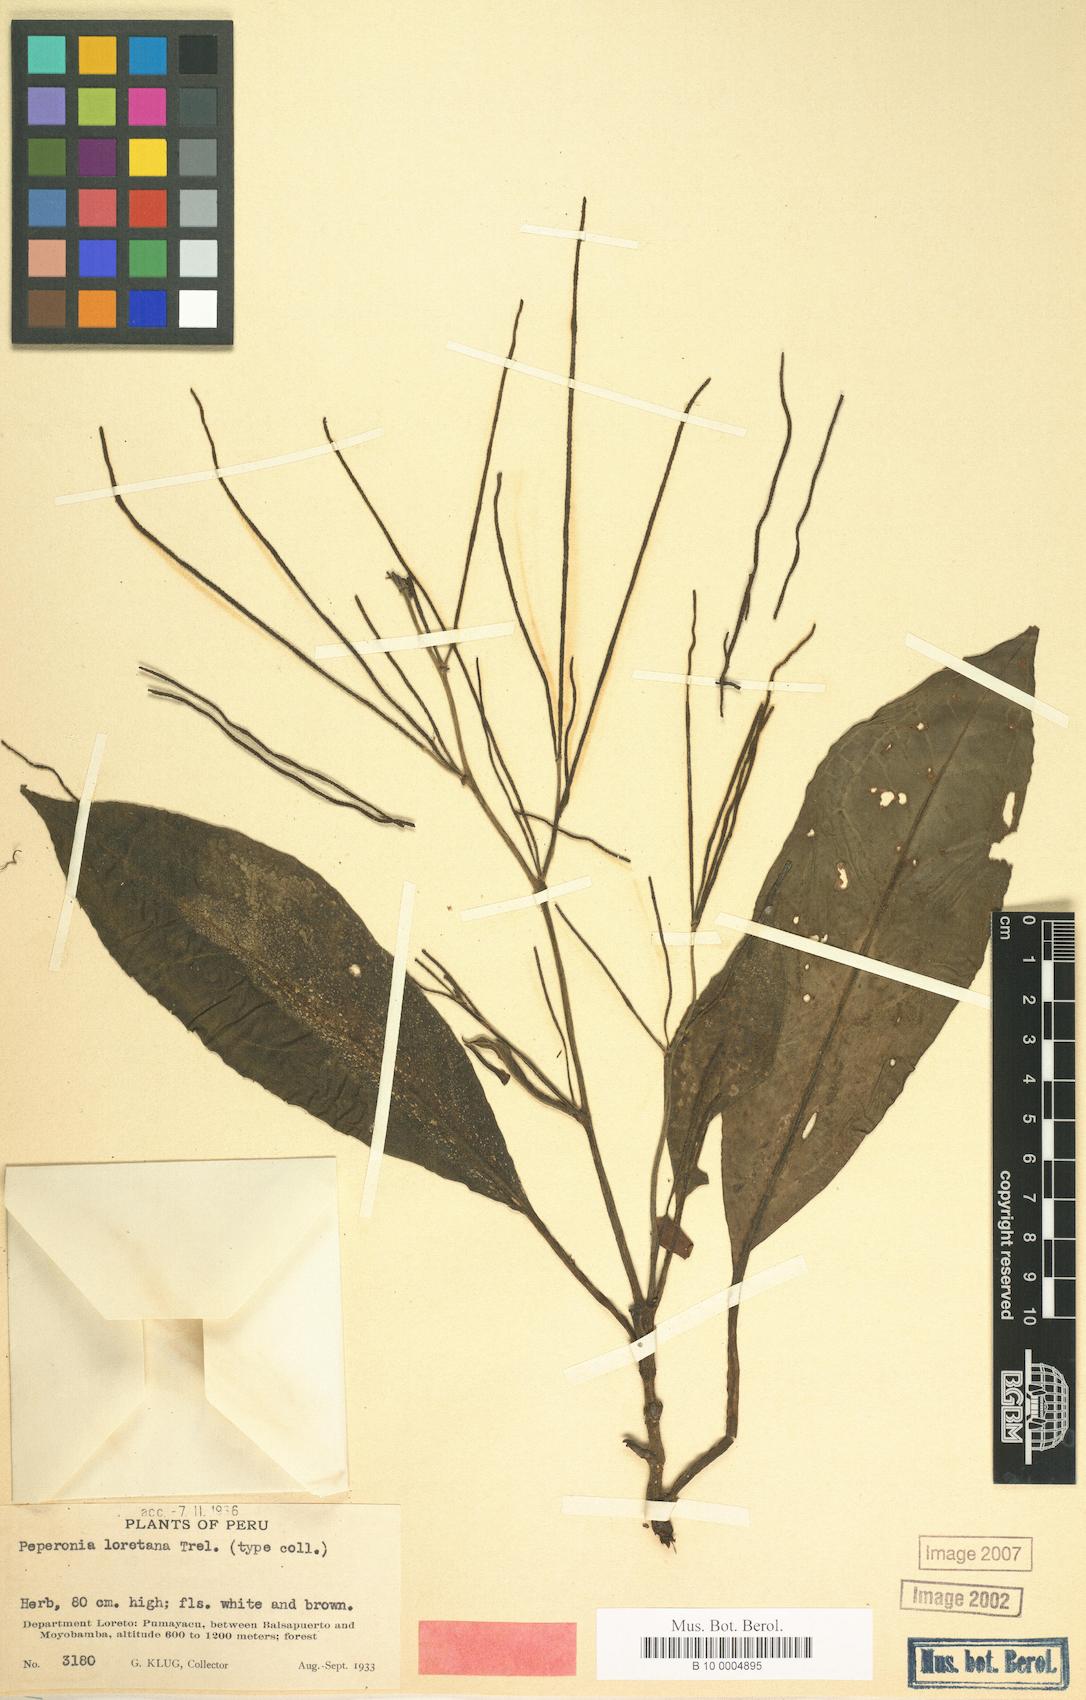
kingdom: Plantae
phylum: Tracheophyta
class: Magnoliopsida
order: Piperales
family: Piperaceae
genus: Peperomia
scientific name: Peperomia
